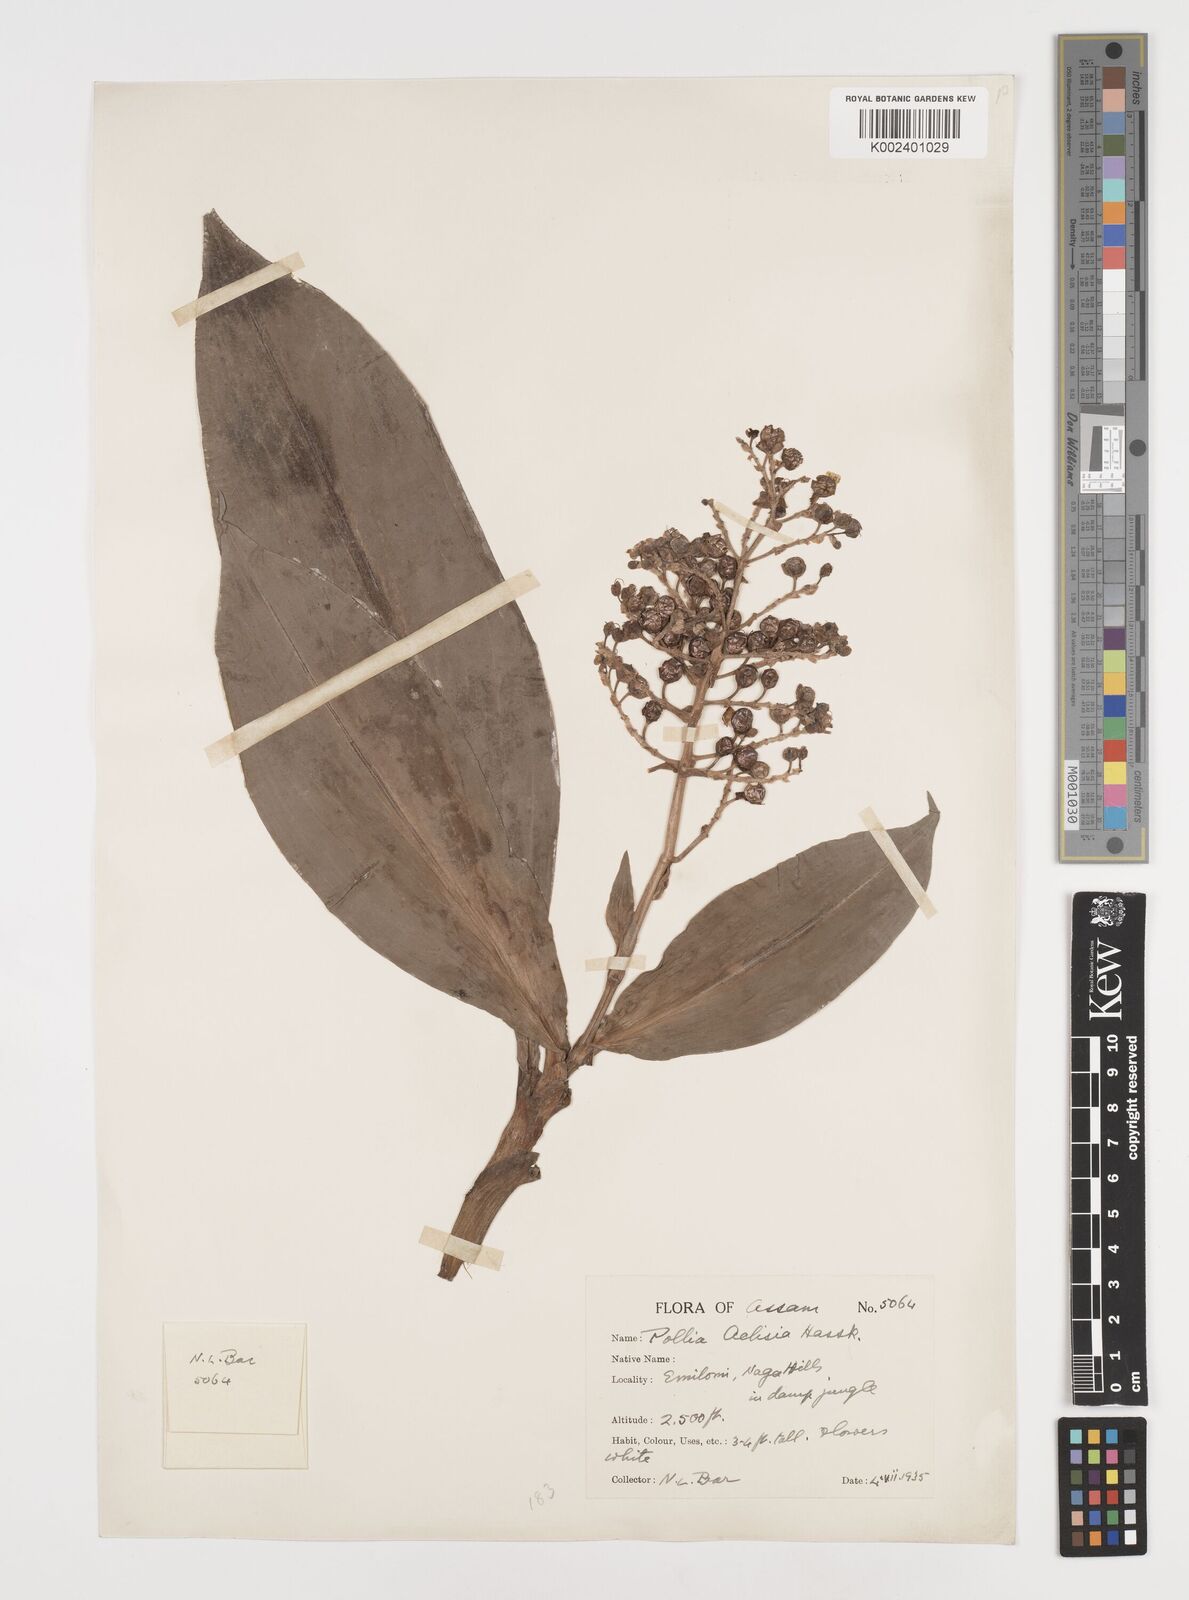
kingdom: Plantae
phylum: Tracheophyta
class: Liliopsida
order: Commelinales
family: Commelinaceae
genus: Pollia
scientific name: Pollia hasskarlii
